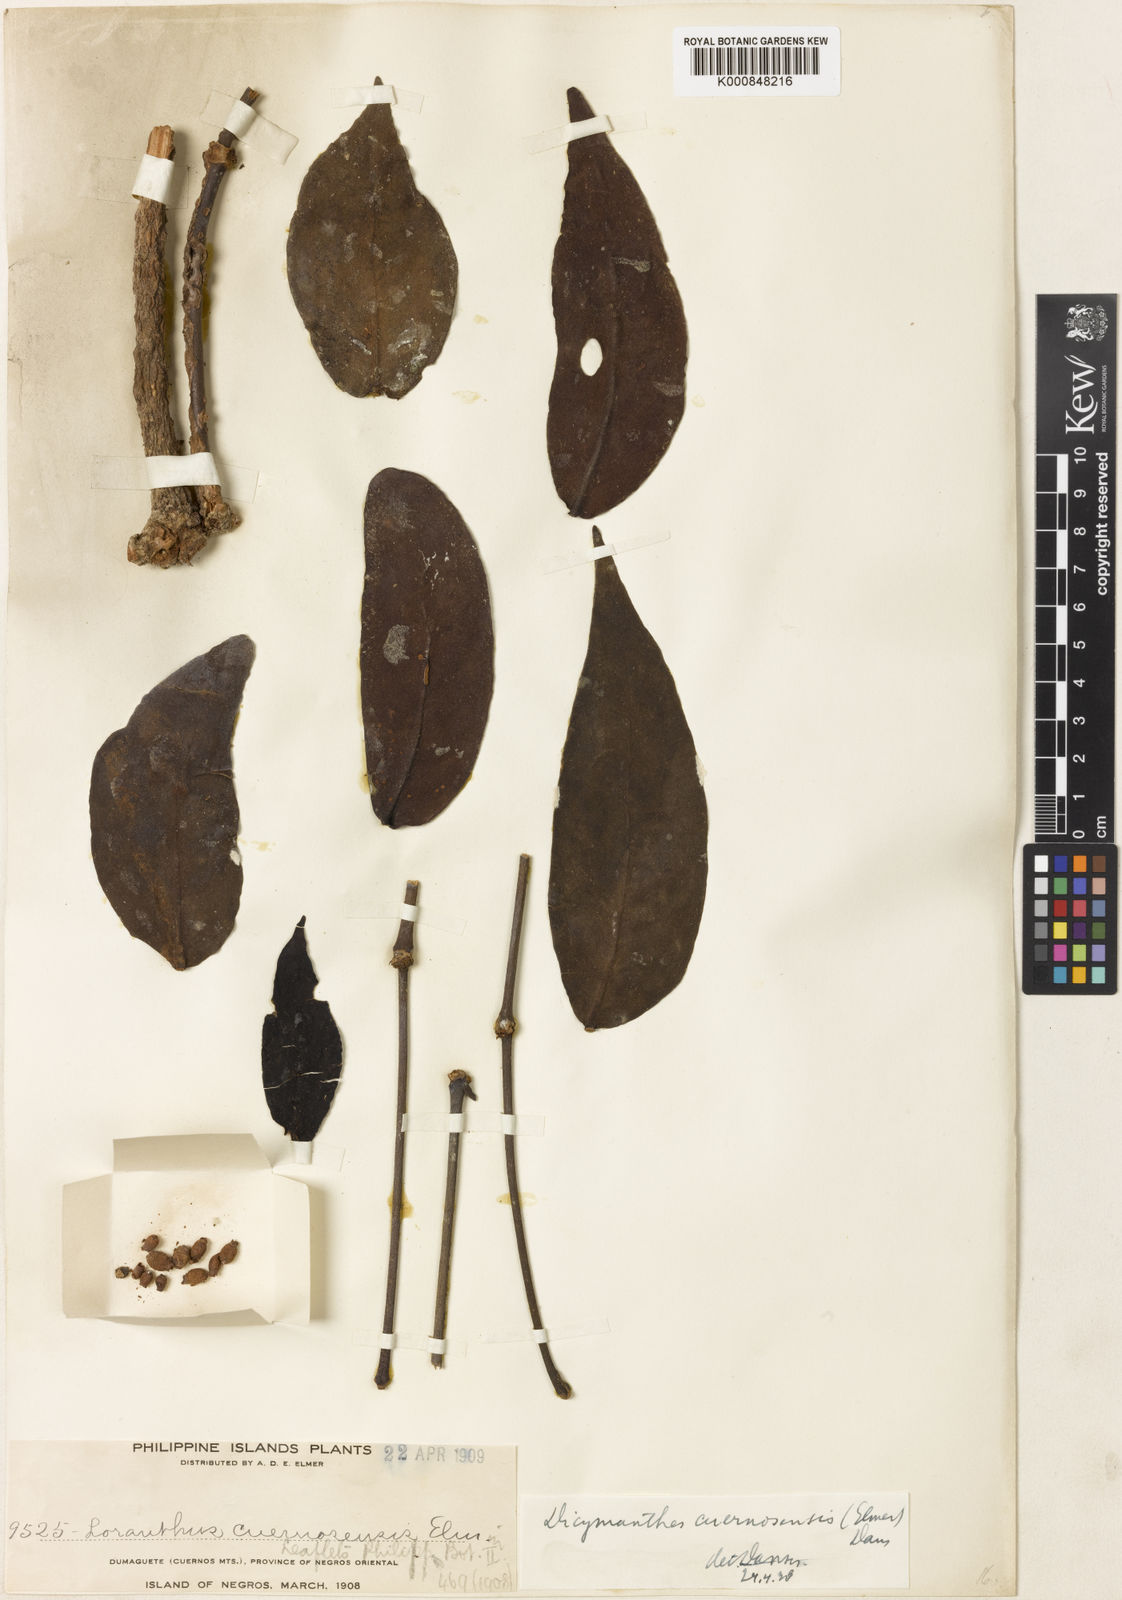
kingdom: Plantae
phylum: Tracheophyta
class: Magnoliopsida
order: Santalales
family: Loranthaceae
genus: Amyema
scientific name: Amyema cuernosensis
